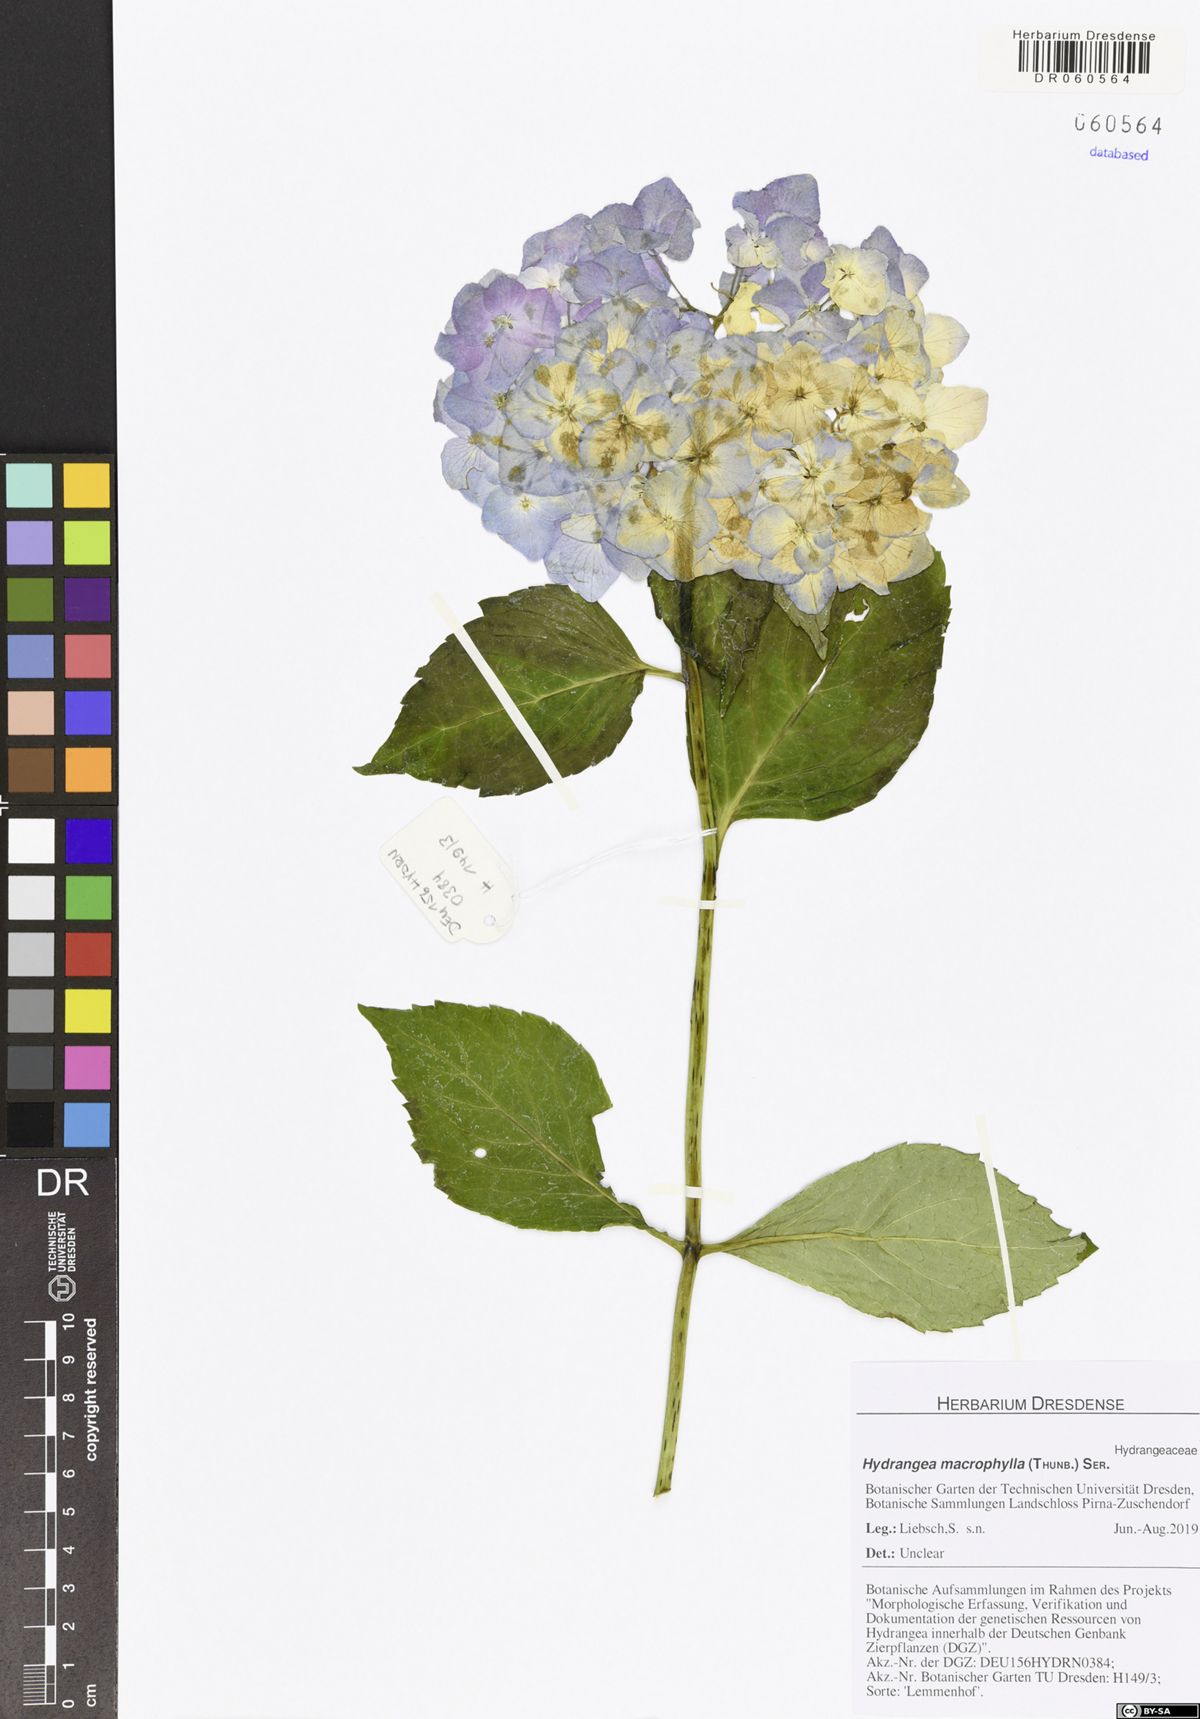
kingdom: Plantae
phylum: Tracheophyta
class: Magnoliopsida
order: Cornales
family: Hydrangeaceae
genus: Hydrangea
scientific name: Hydrangea macrophylla
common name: Hydrangea
